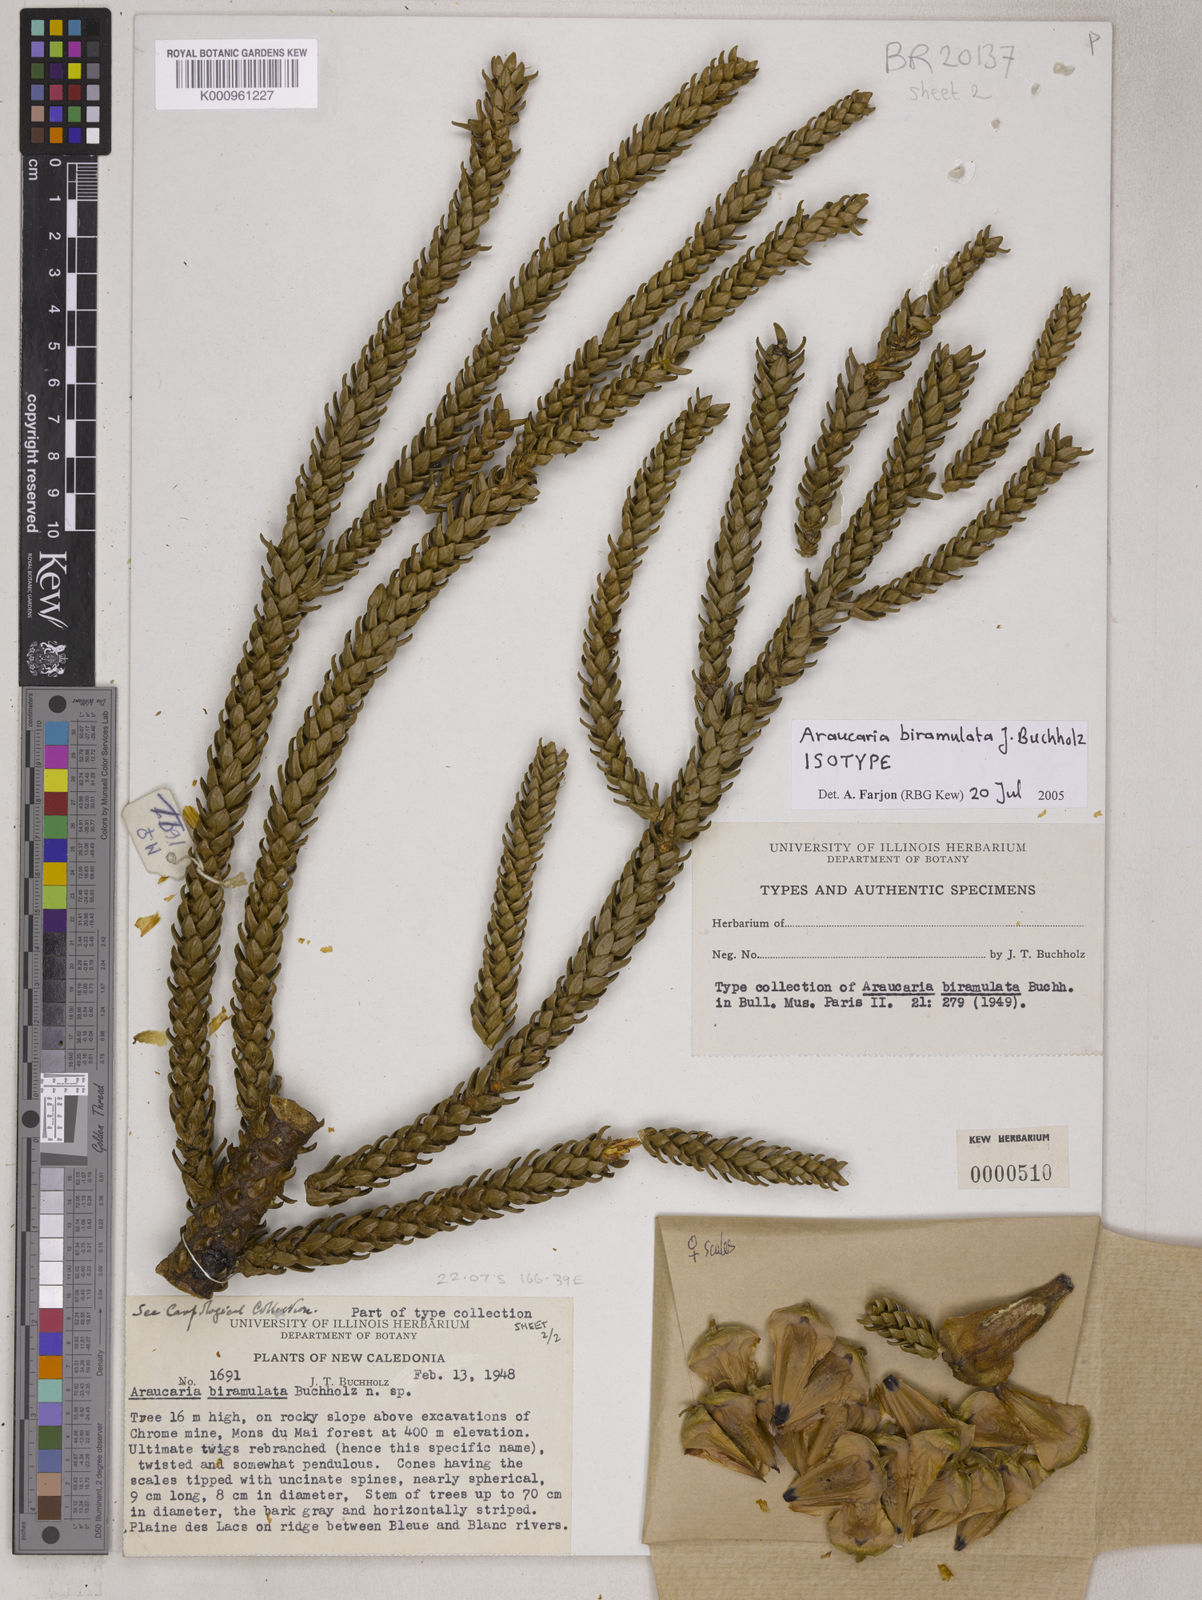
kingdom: Plantae
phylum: Tracheophyta
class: Pinopsida
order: Pinales
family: Araucariaceae
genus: Araucaria
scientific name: Araucaria biramulata
